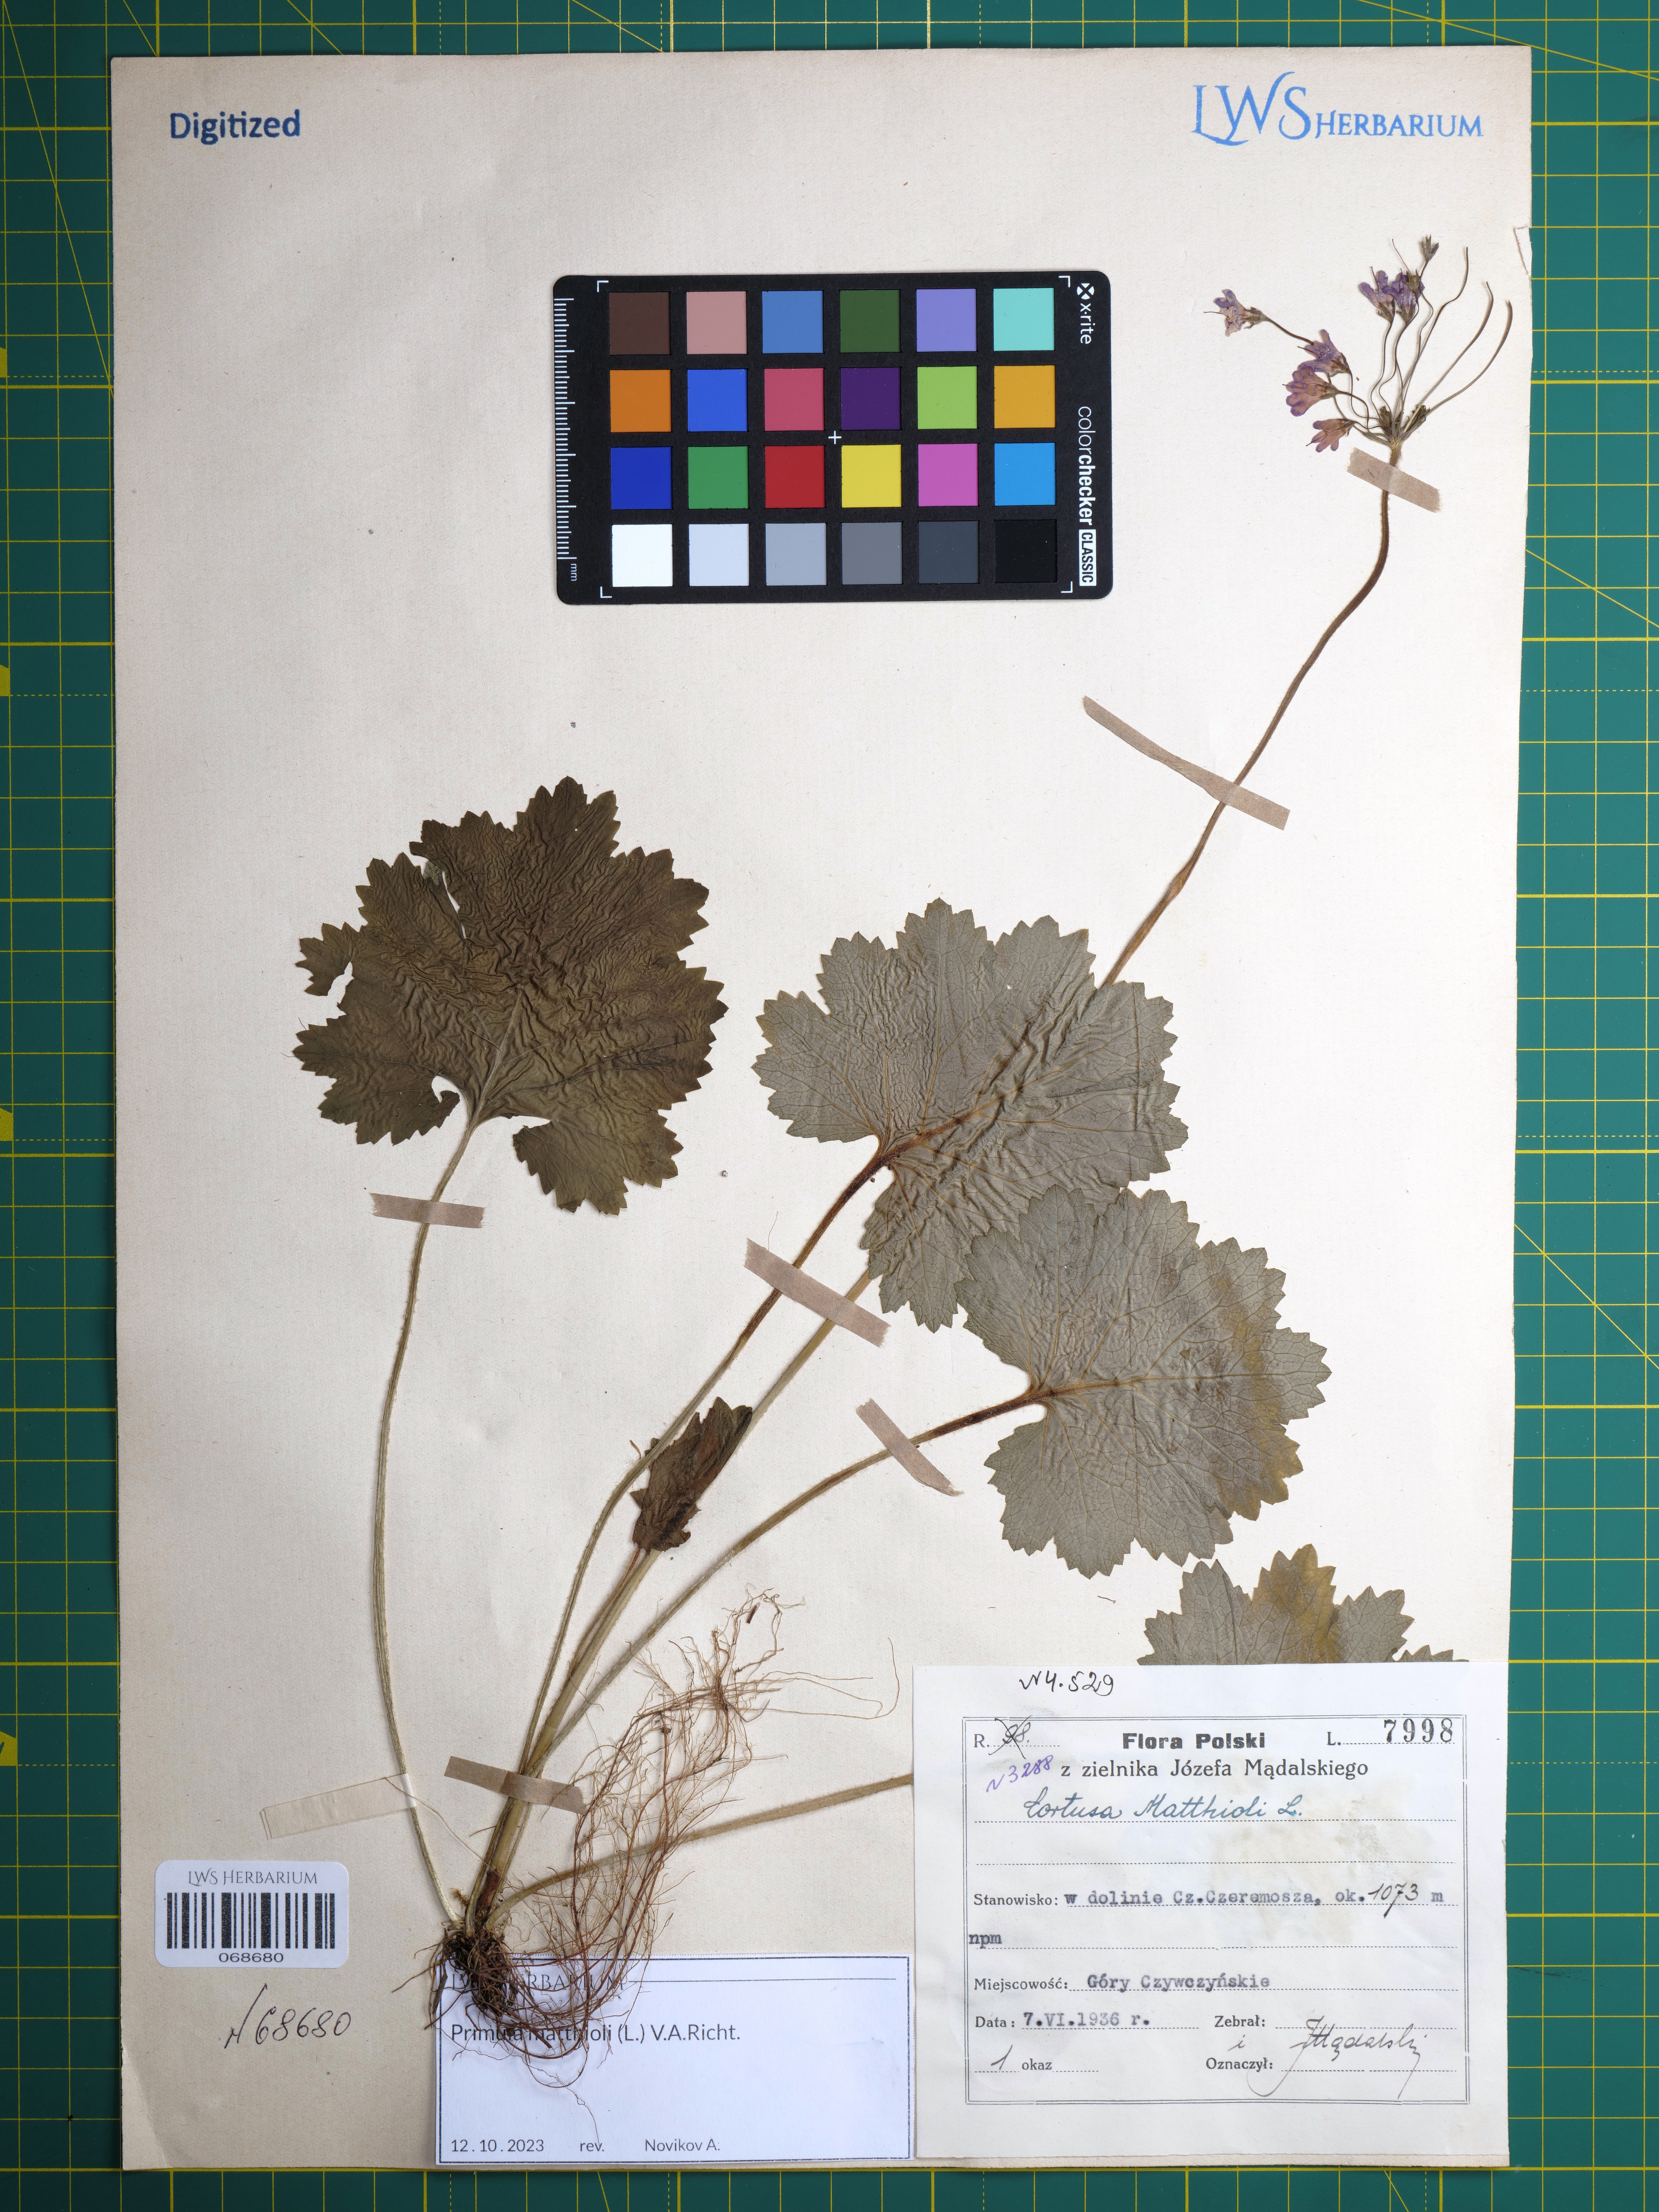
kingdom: Plantae
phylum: Tracheophyta
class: Magnoliopsida
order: Ericales
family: Primulaceae
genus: Primula
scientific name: Primula matthioli
